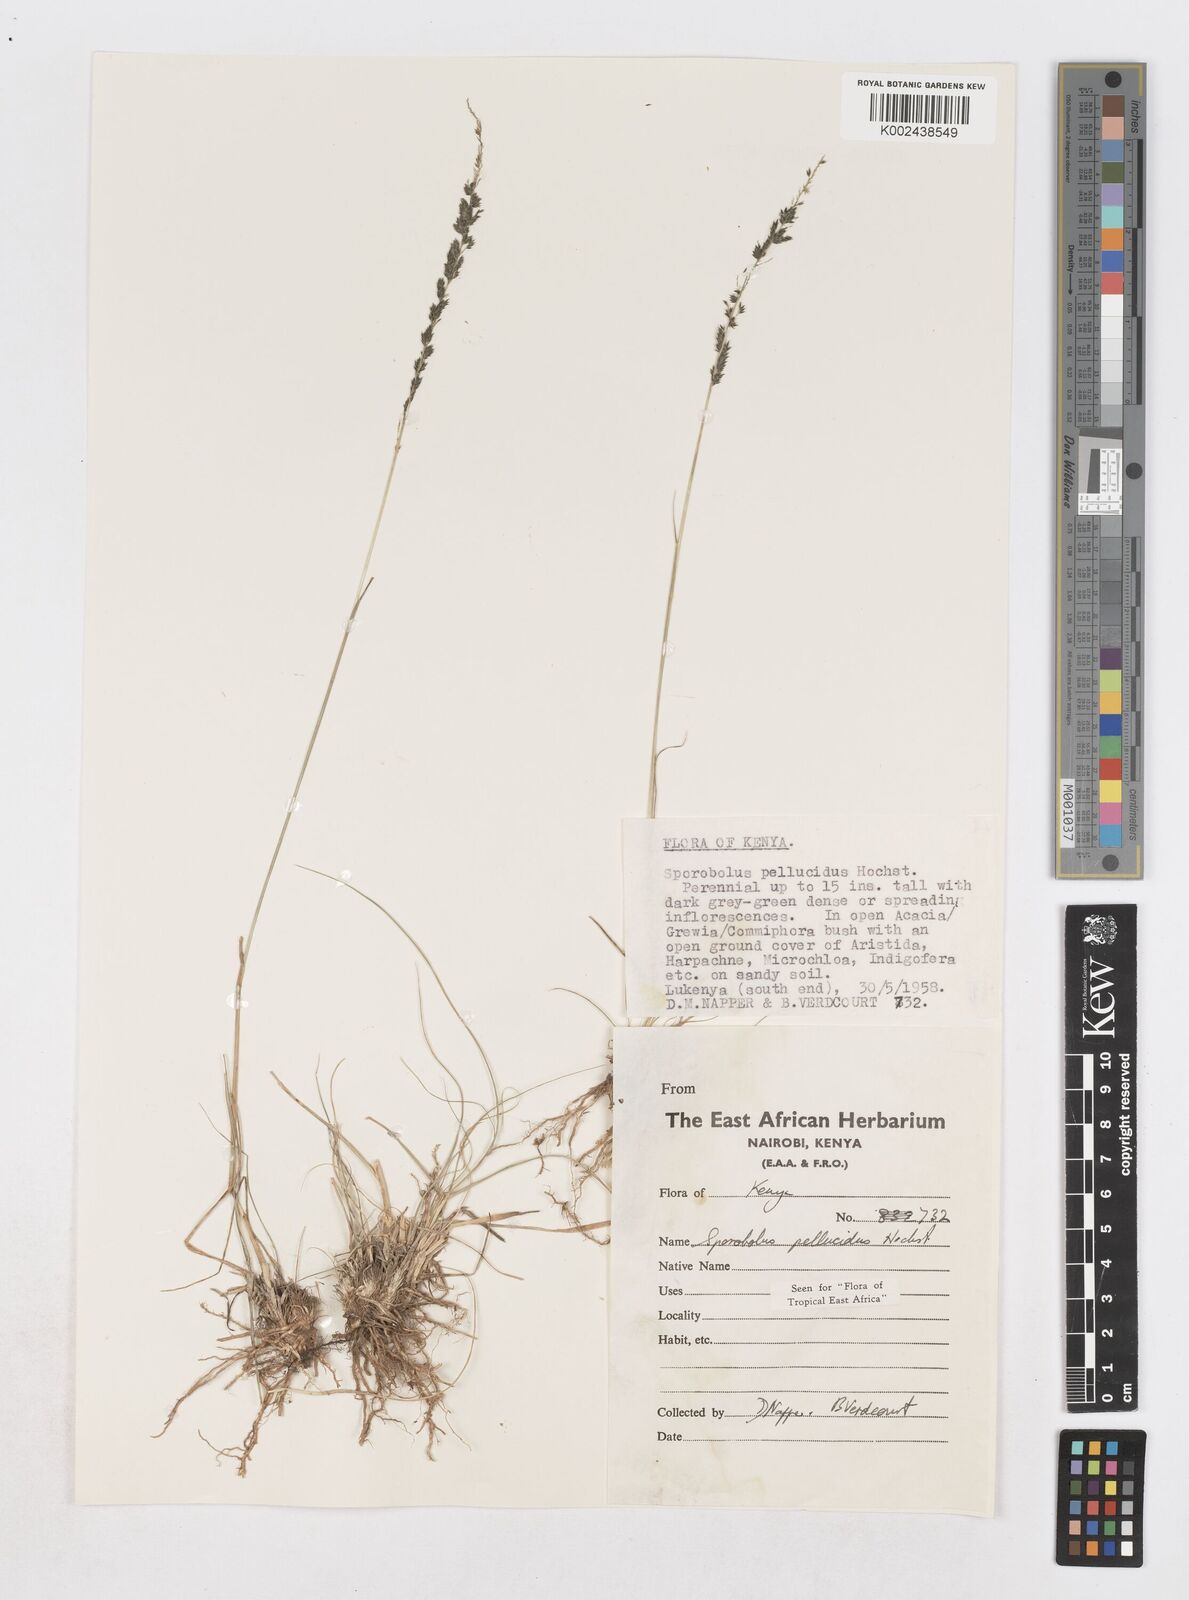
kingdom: Plantae
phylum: Tracheophyta
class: Liliopsida
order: Poales
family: Poaceae
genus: Sporobolus
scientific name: Sporobolus pellucidus
